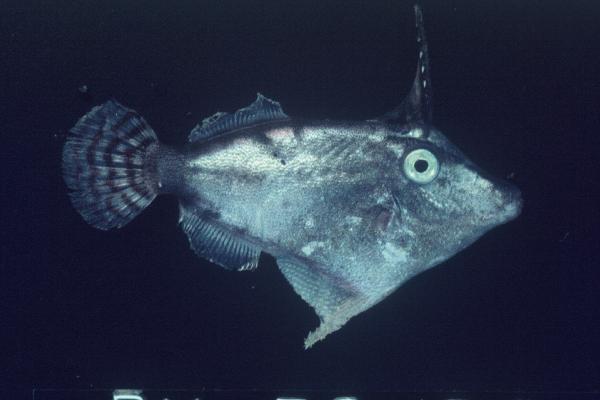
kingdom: Animalia
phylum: Chordata
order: Tetraodontiformes
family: Monacanthidae
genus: Pervagor
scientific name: Pervagor janthinosoma
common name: Blackbar filefish
